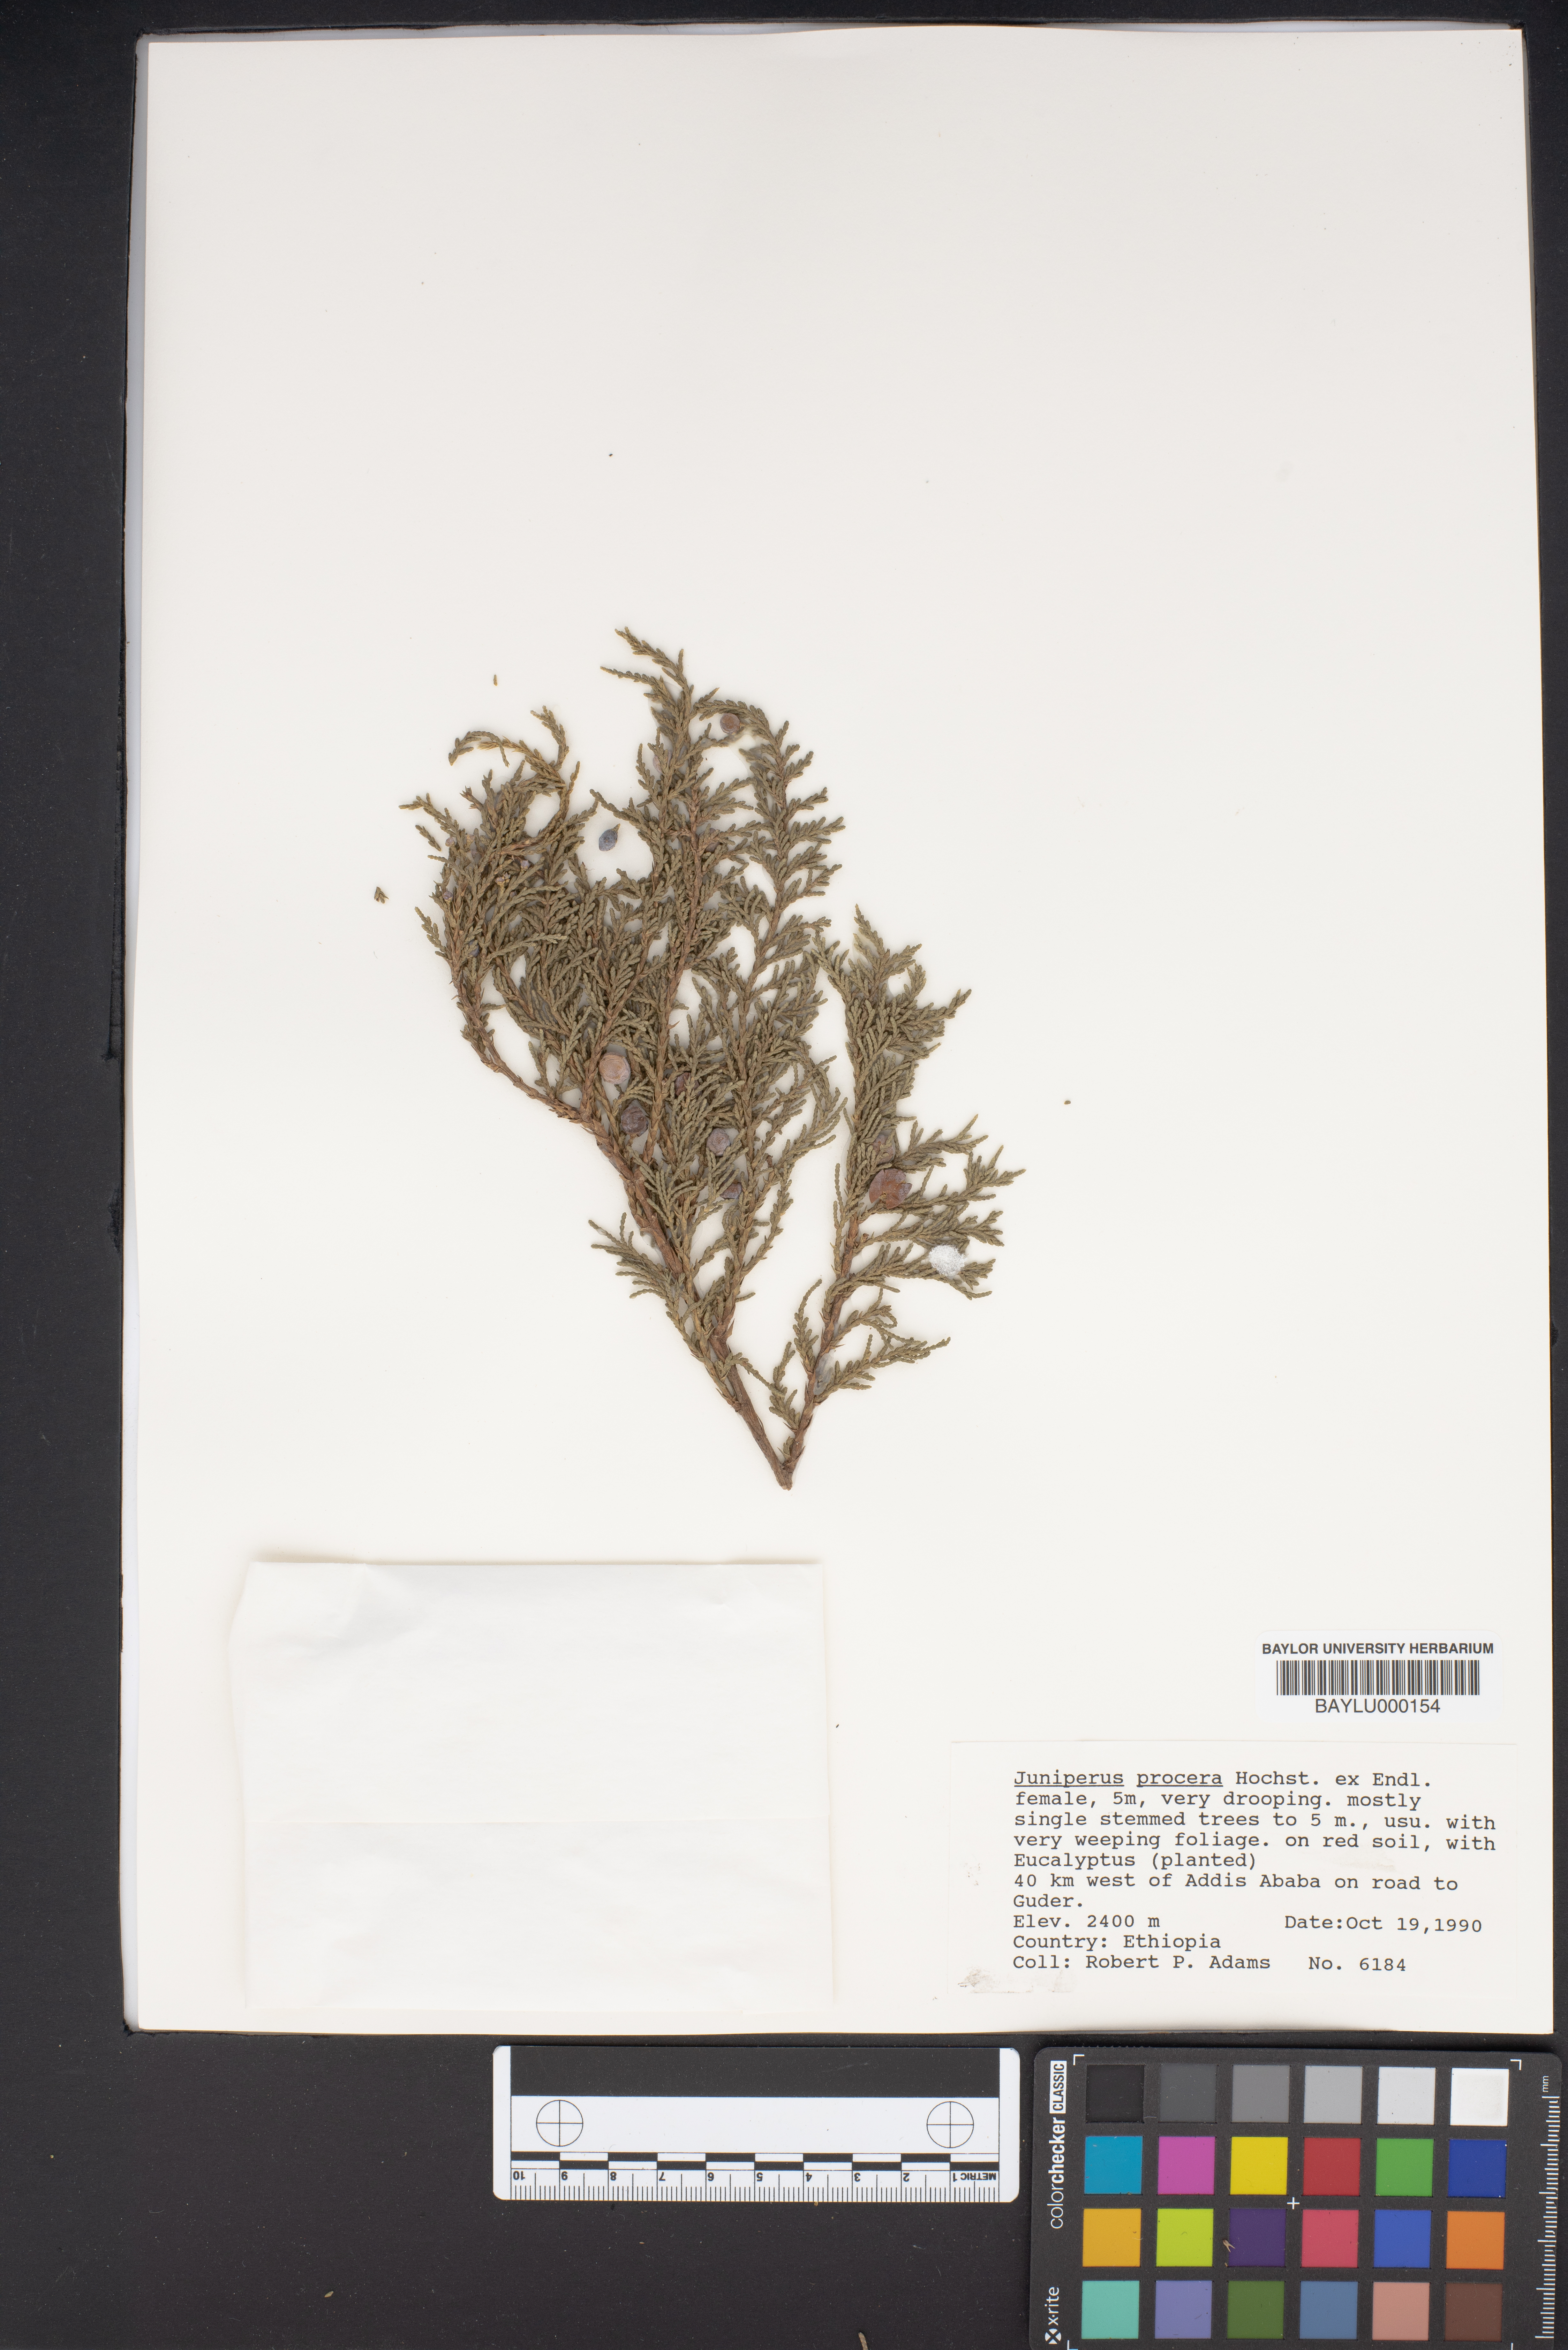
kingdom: Plantae
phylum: Tracheophyta
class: Pinopsida
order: Pinales
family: Cupressaceae
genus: Juniperus
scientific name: Juniperus procera
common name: African juniper
